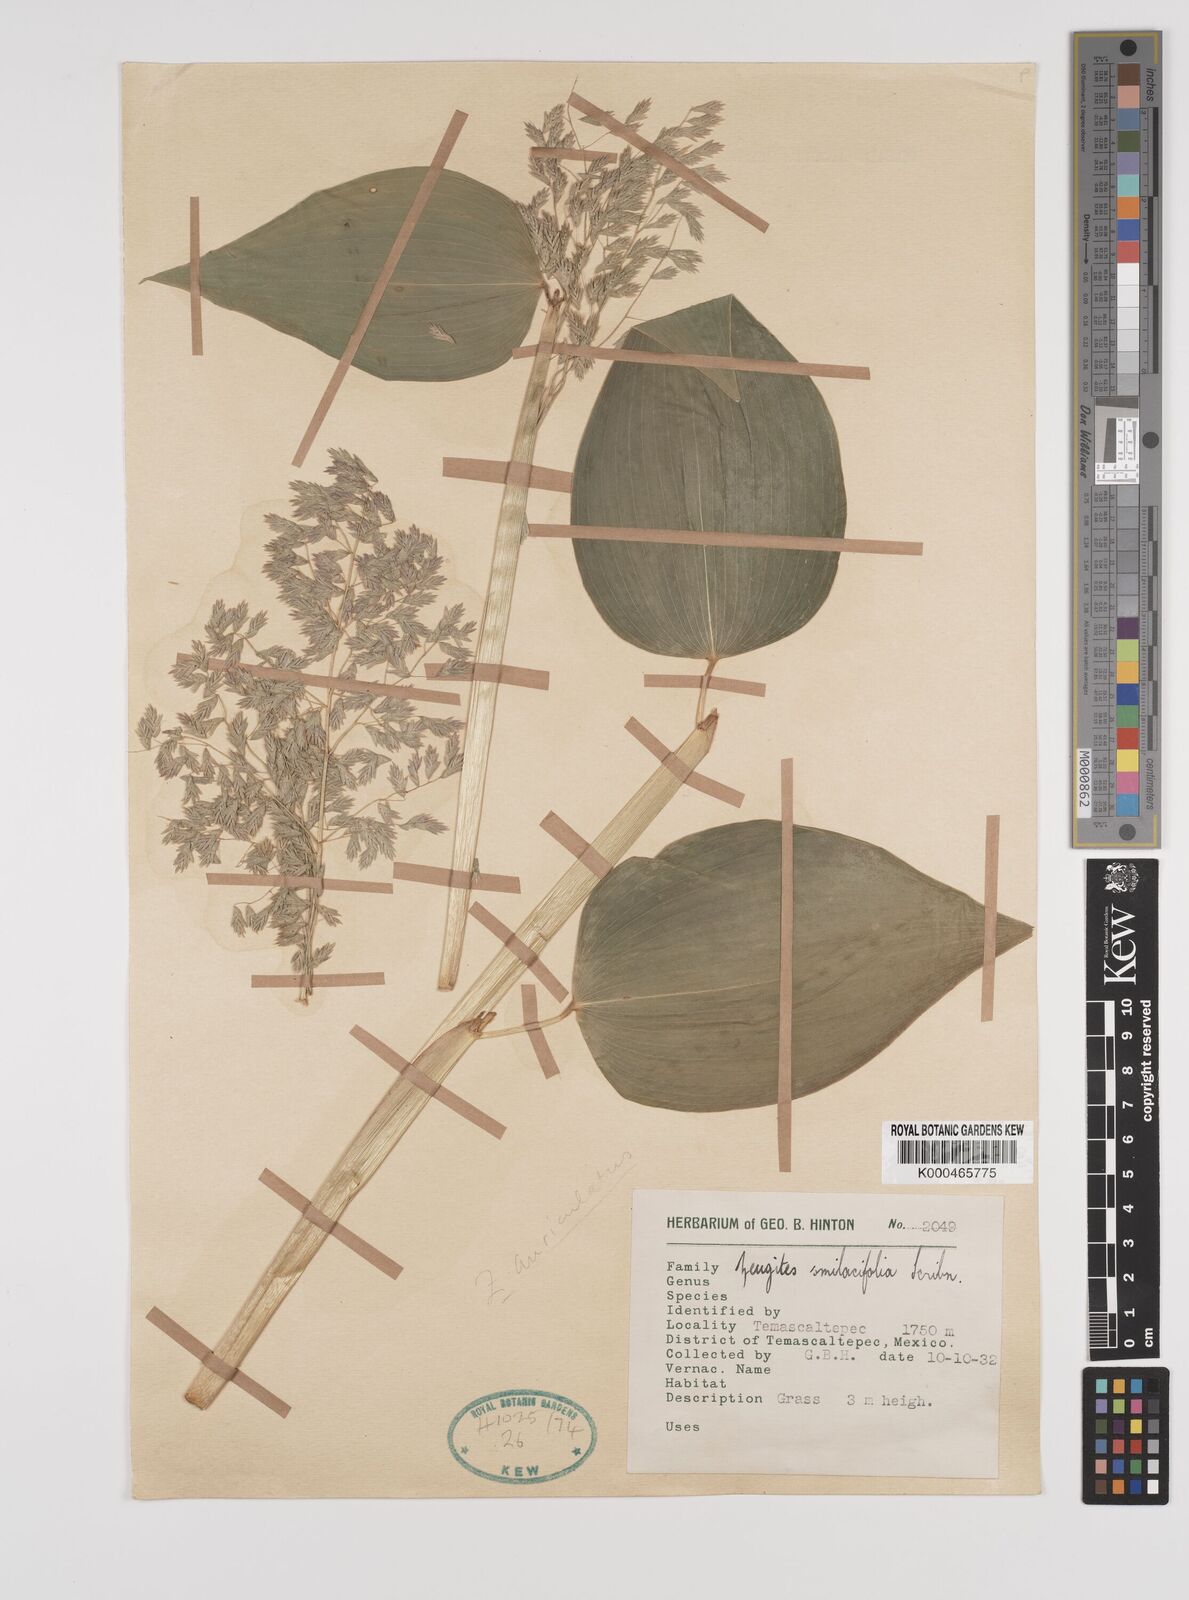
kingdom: Plantae
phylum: Tracheophyta
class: Liliopsida
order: Poales
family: Poaceae
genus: Zeugites
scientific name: Zeugites smilacifolius
